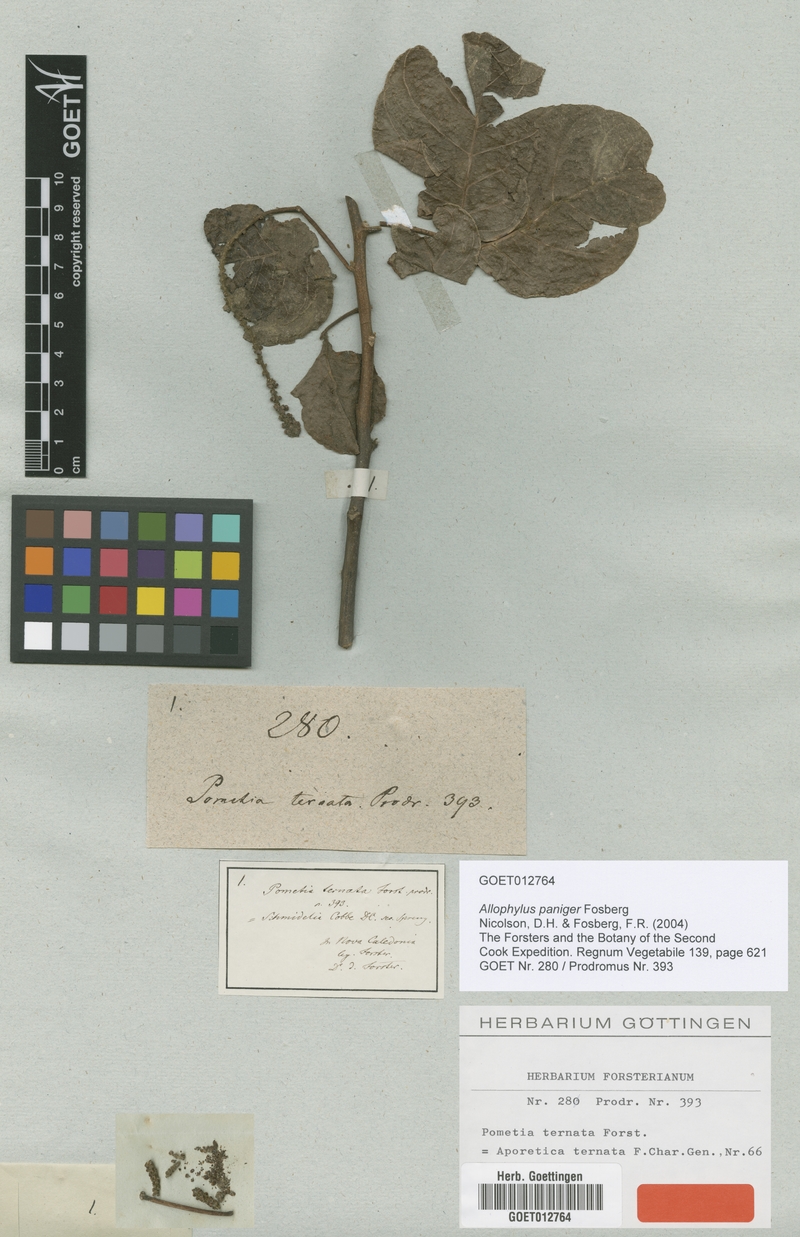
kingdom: Plantae
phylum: Tracheophyta
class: Magnoliopsida
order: Sapindales
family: Sapindaceae
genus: Allophylus
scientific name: Allophylus amboinensis
